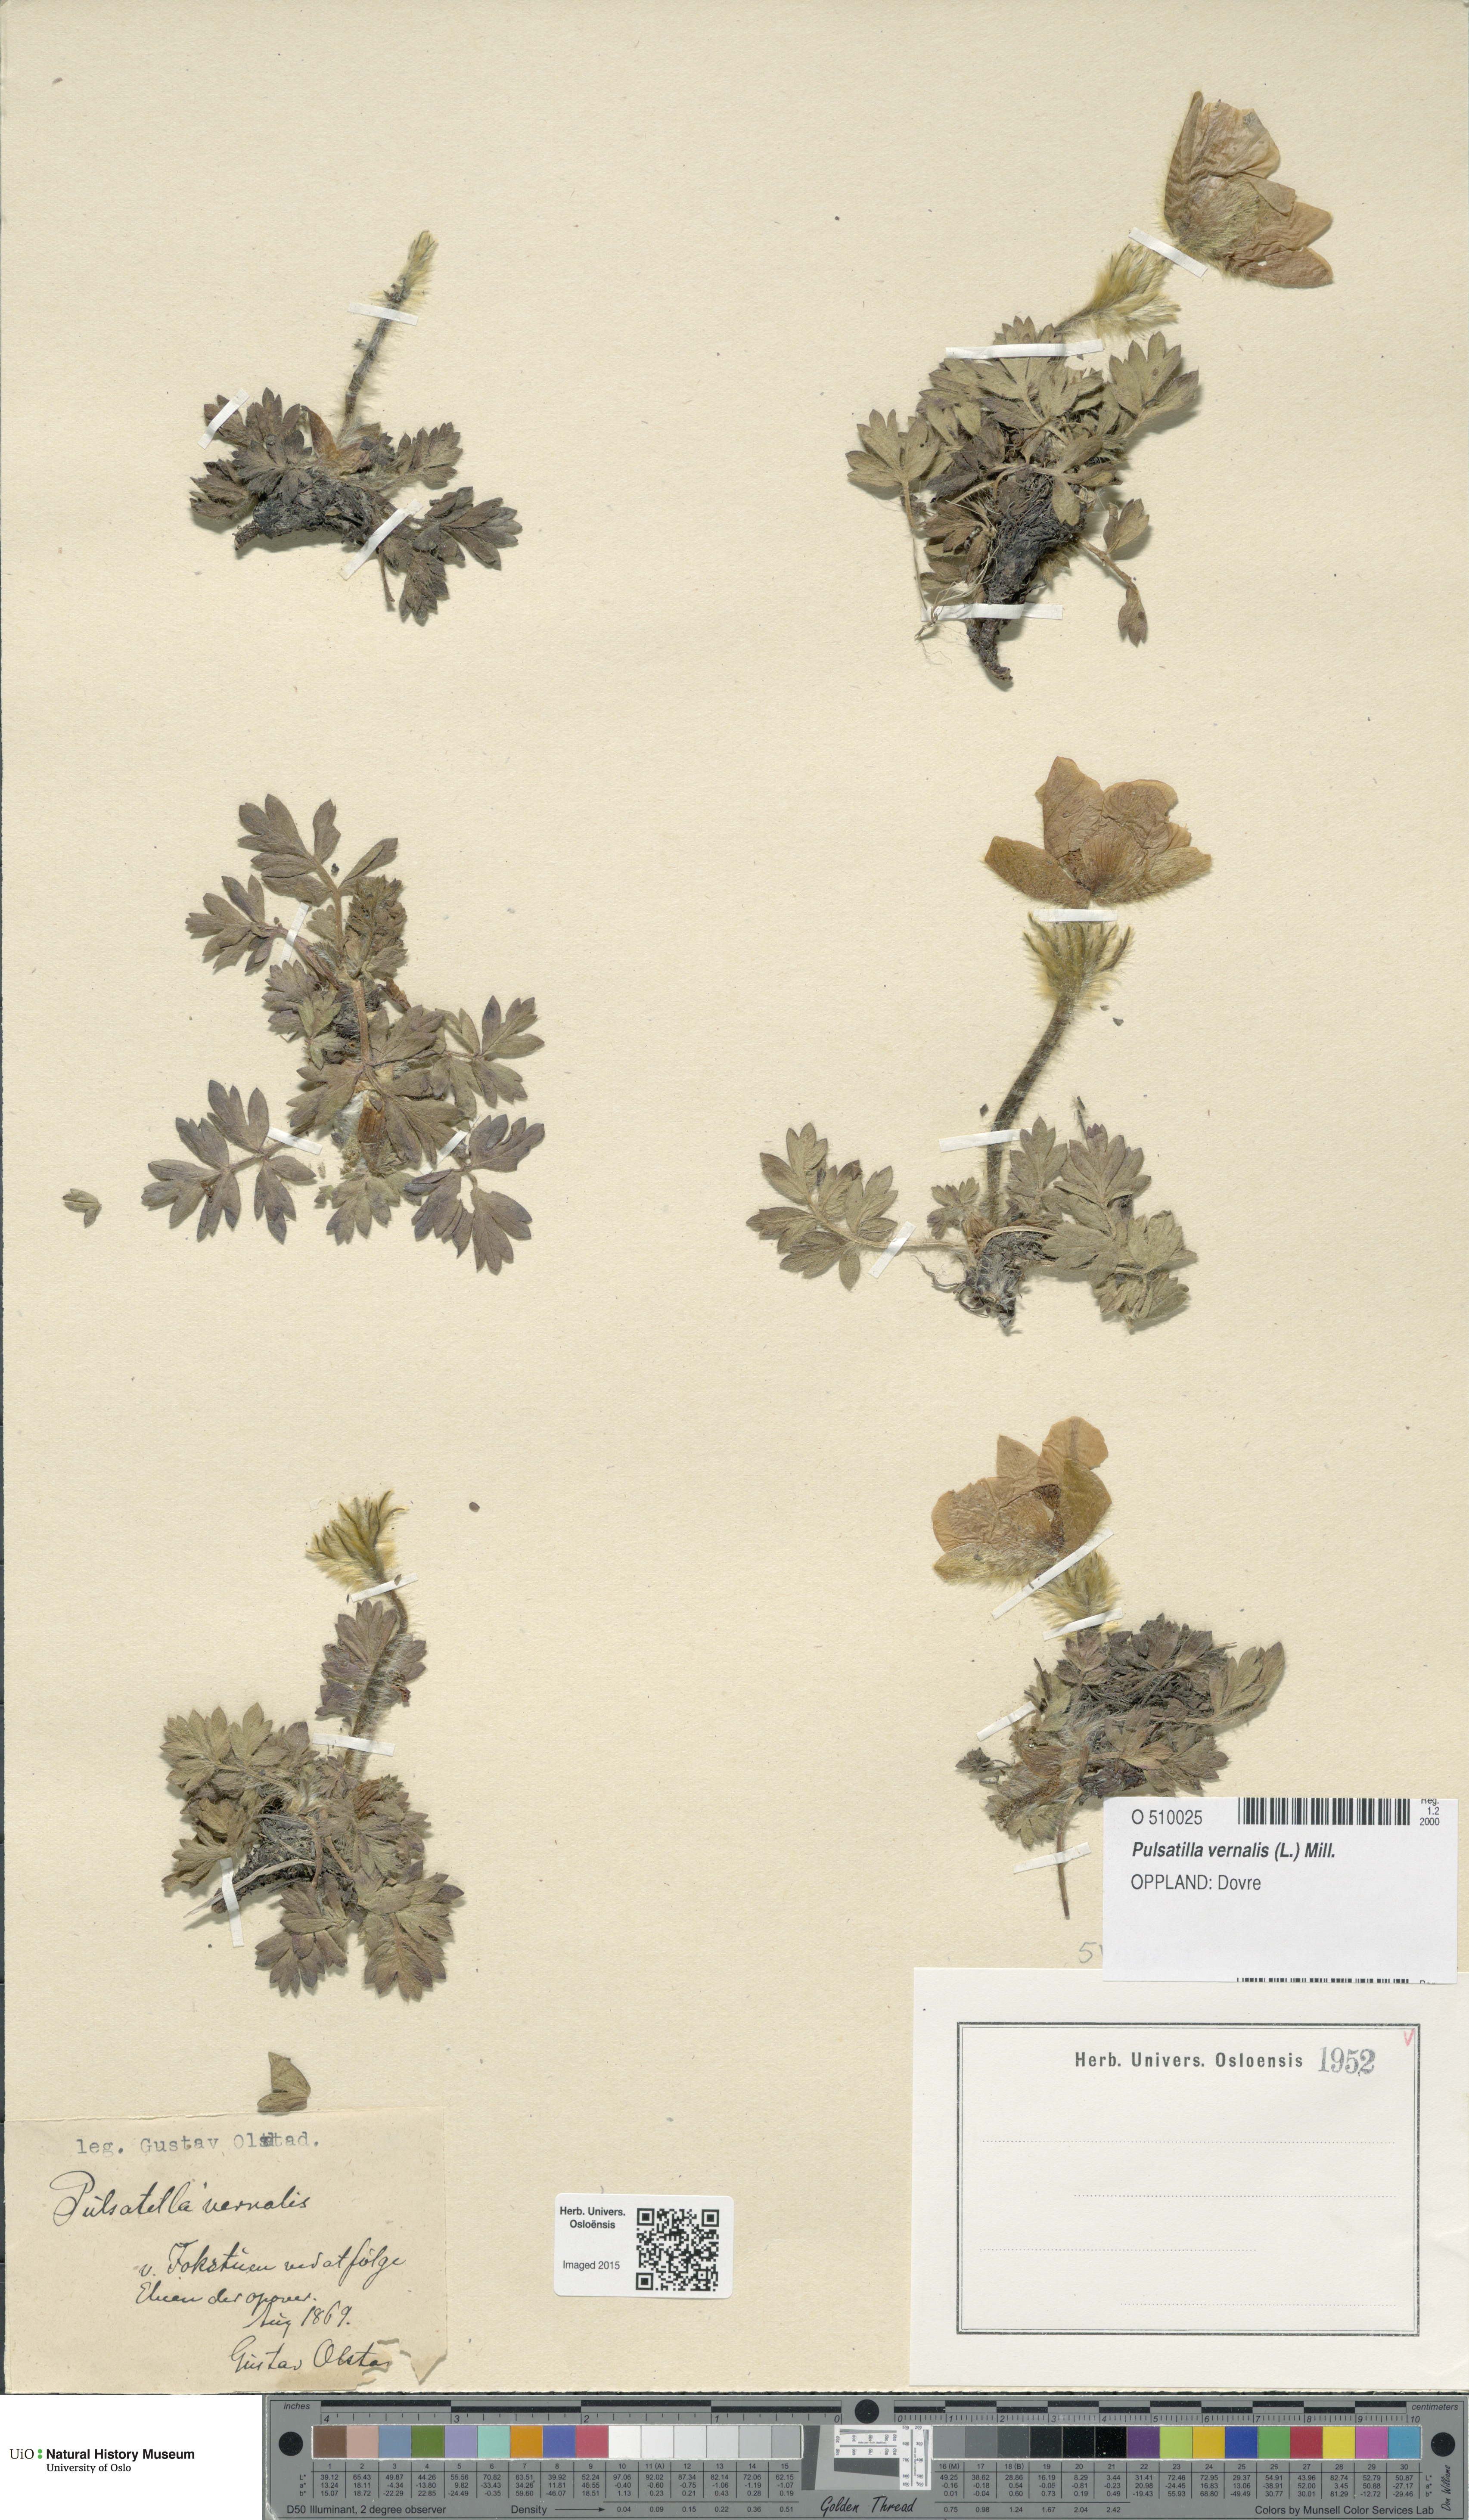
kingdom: Plantae
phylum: Tracheophyta
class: Magnoliopsida
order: Ranunculales
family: Ranunculaceae
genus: Pulsatilla
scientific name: Pulsatilla vernalis
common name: Spring pasque flower
